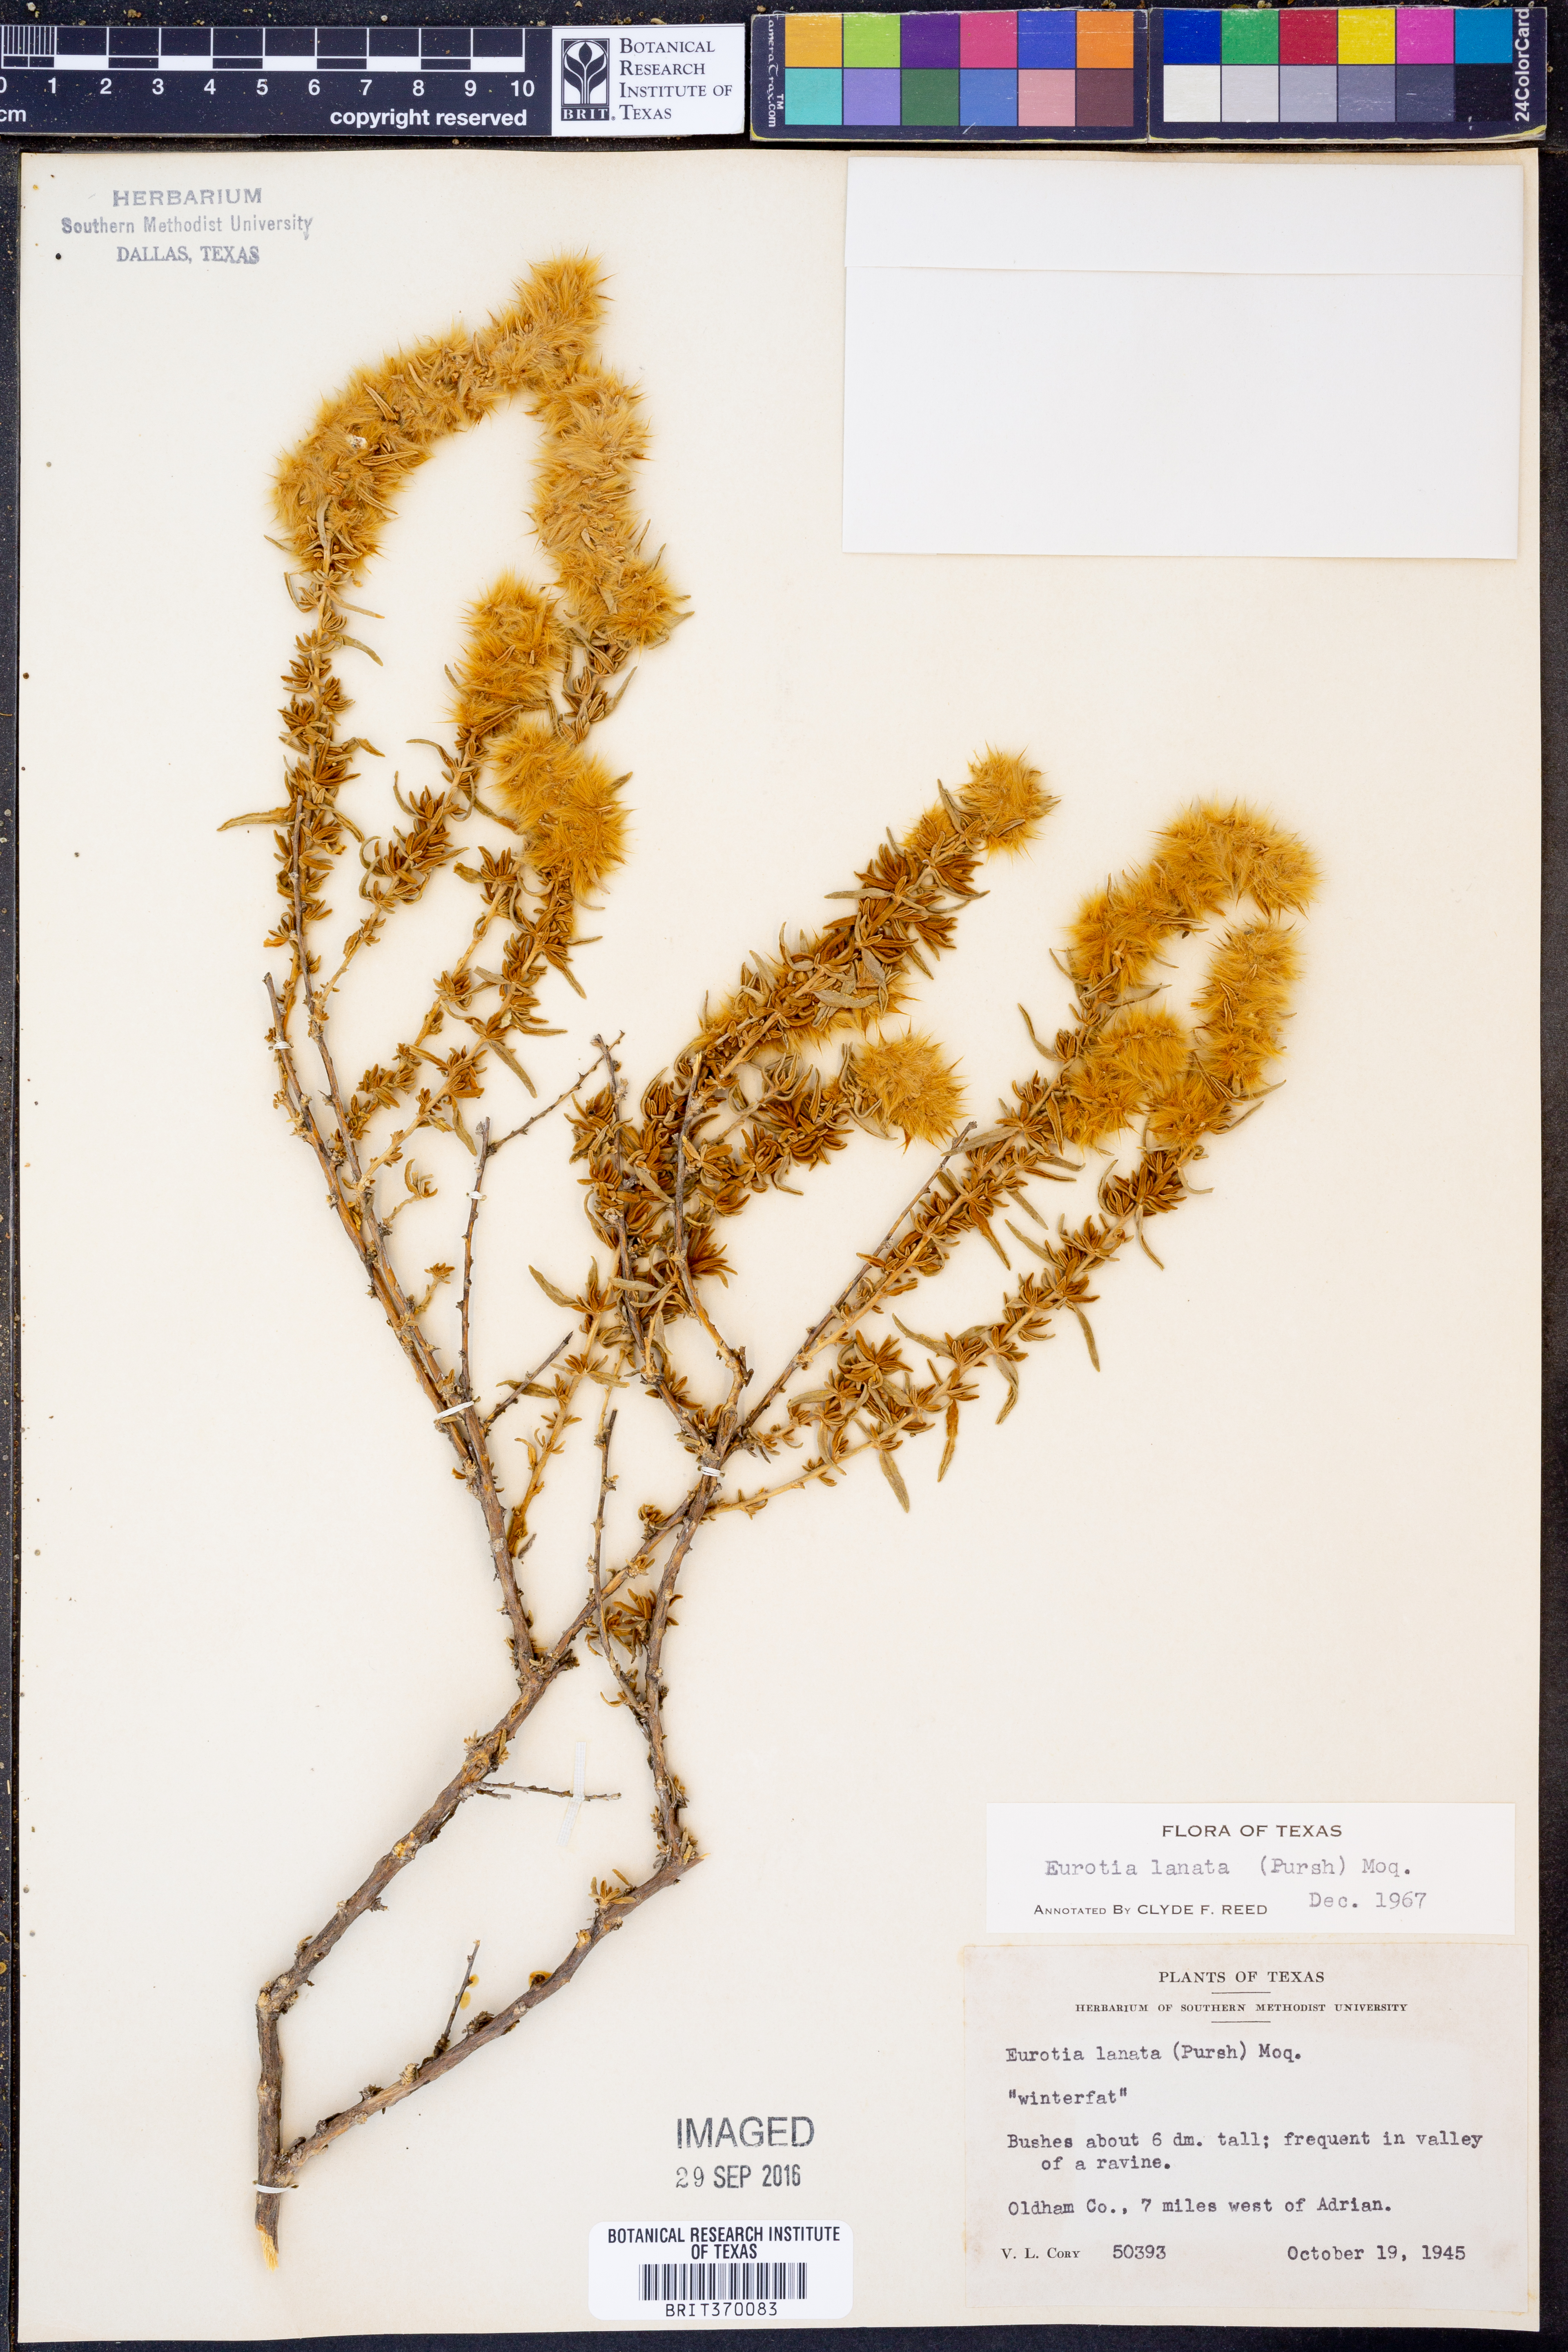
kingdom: Plantae
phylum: Tracheophyta
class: Magnoliopsida
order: Caryophyllales
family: Amaranthaceae
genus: Krascheninnikovia
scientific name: Krascheninnikovia lanata
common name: Winterfat
